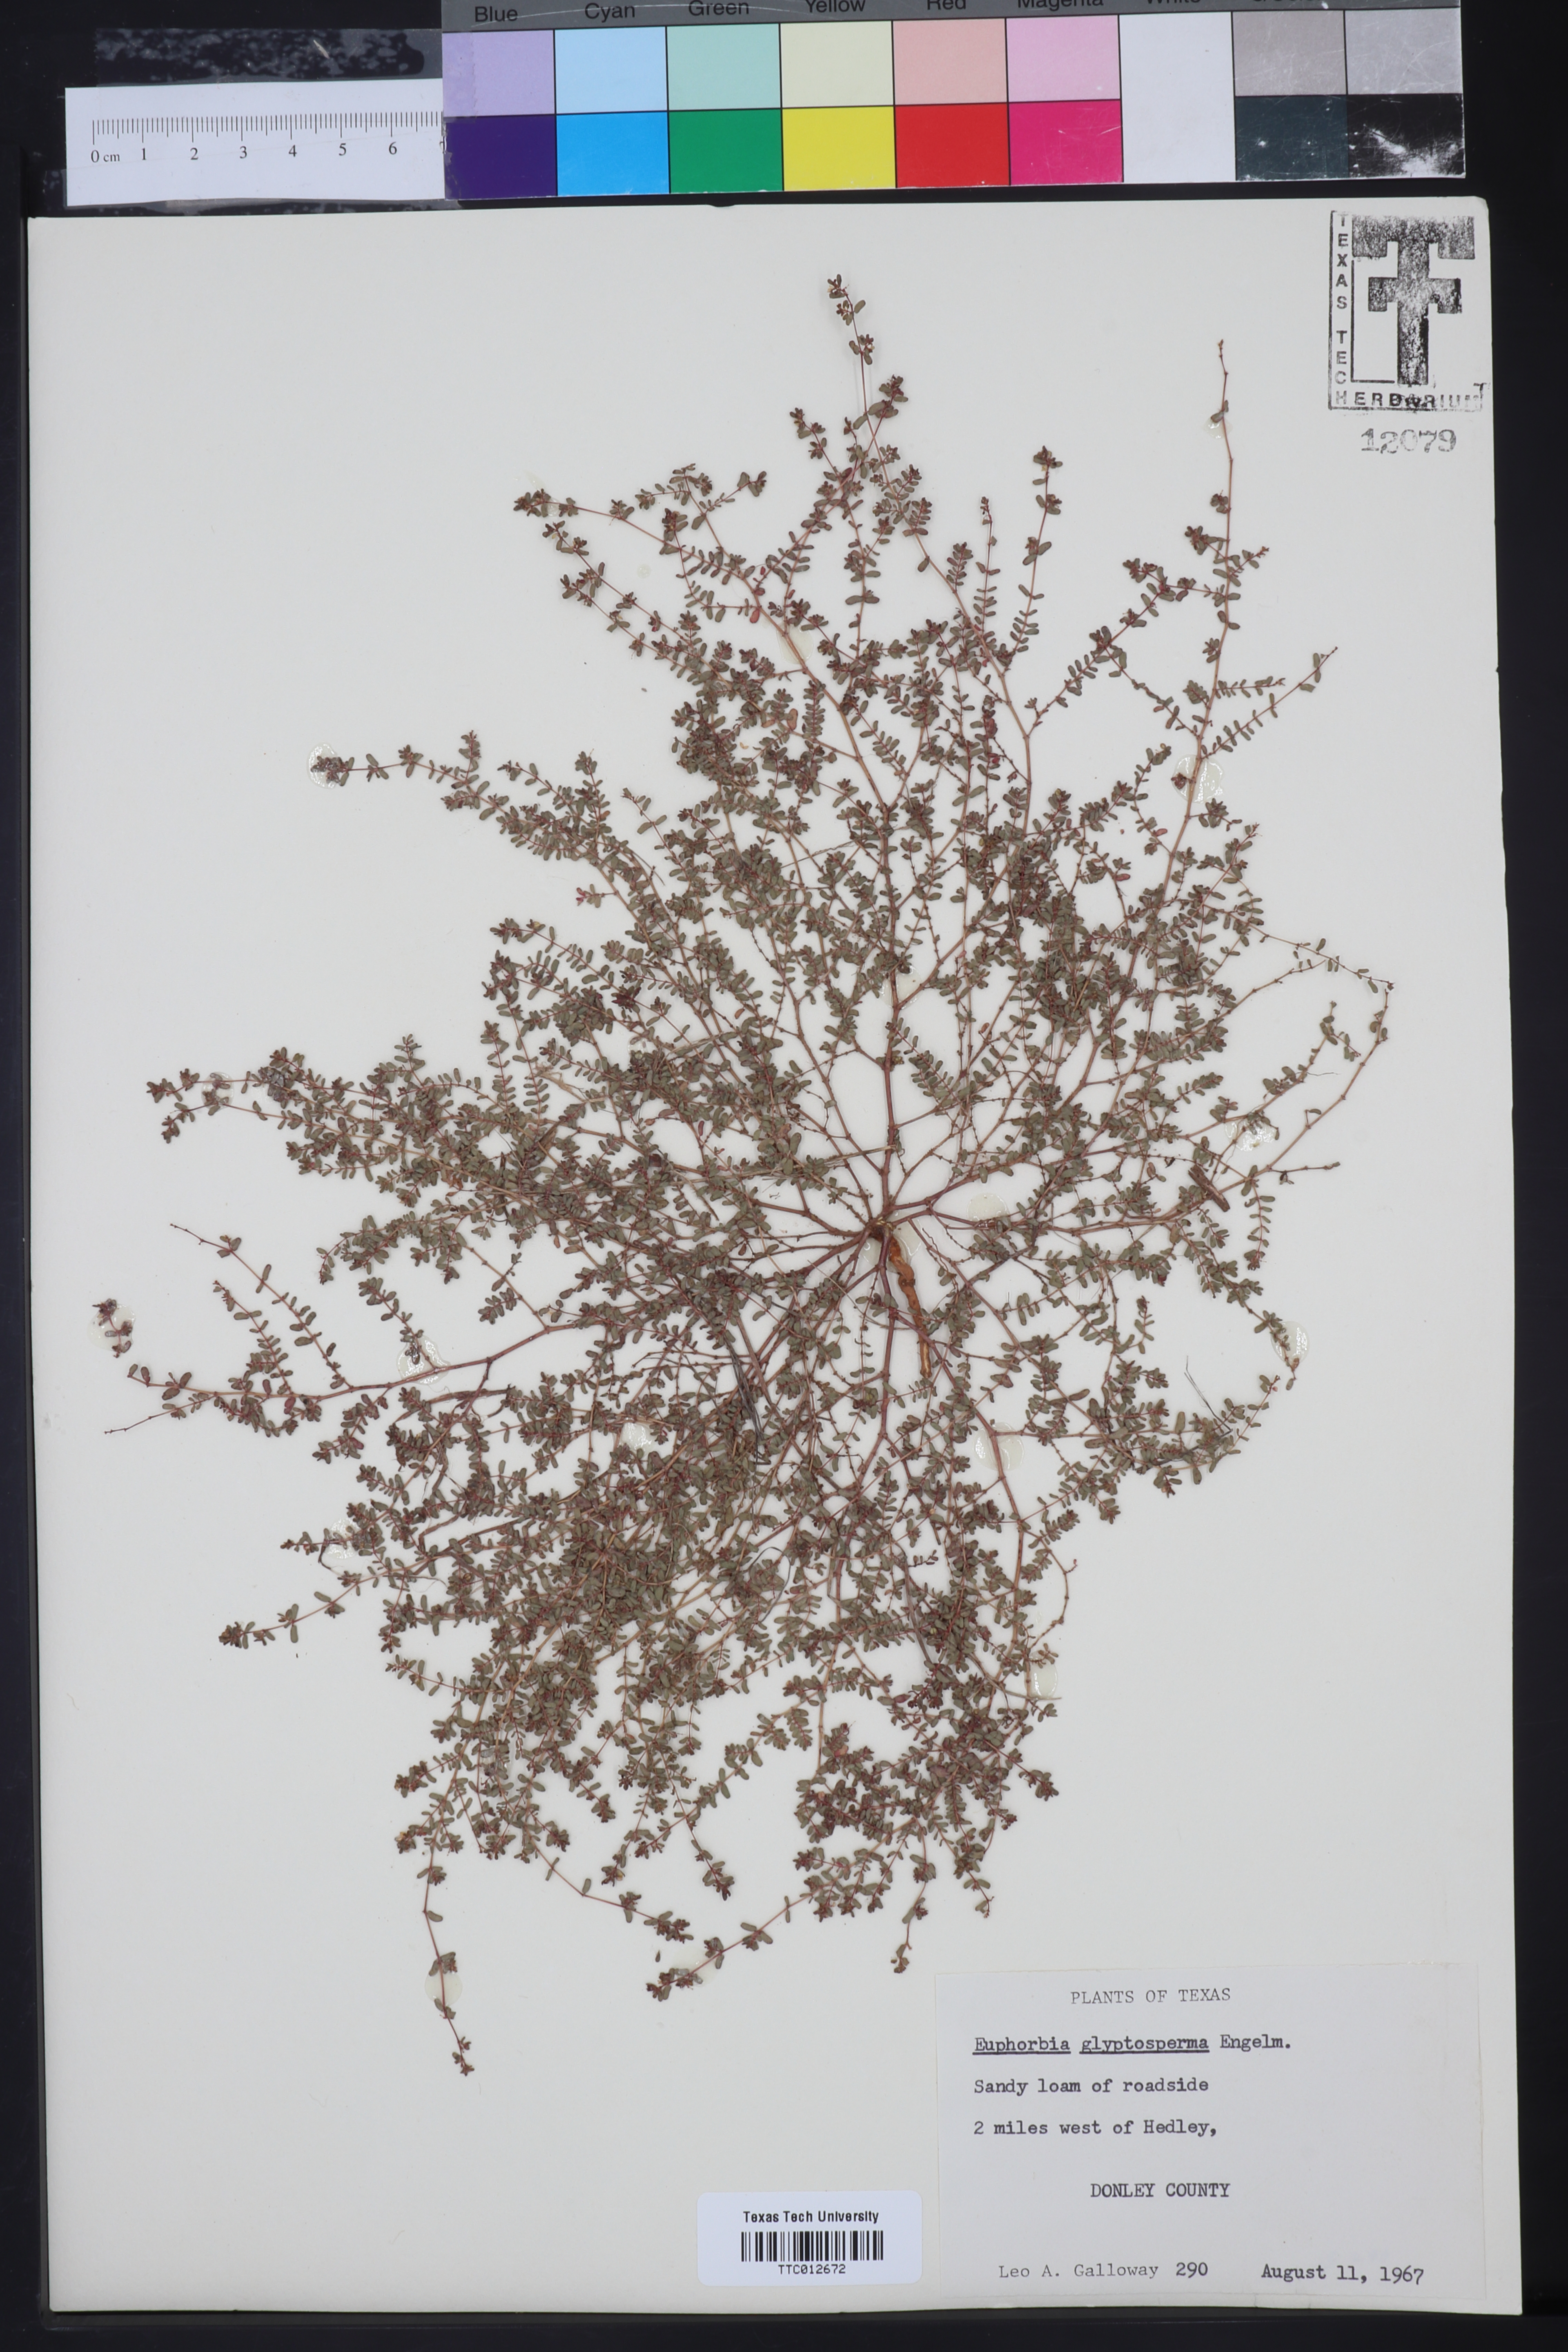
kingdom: Plantae
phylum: Tracheophyta
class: Magnoliopsida
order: Malpighiales
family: Euphorbiaceae
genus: Euphorbia
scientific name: Euphorbia glyptosperma
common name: Corrugate-seeded spurge
